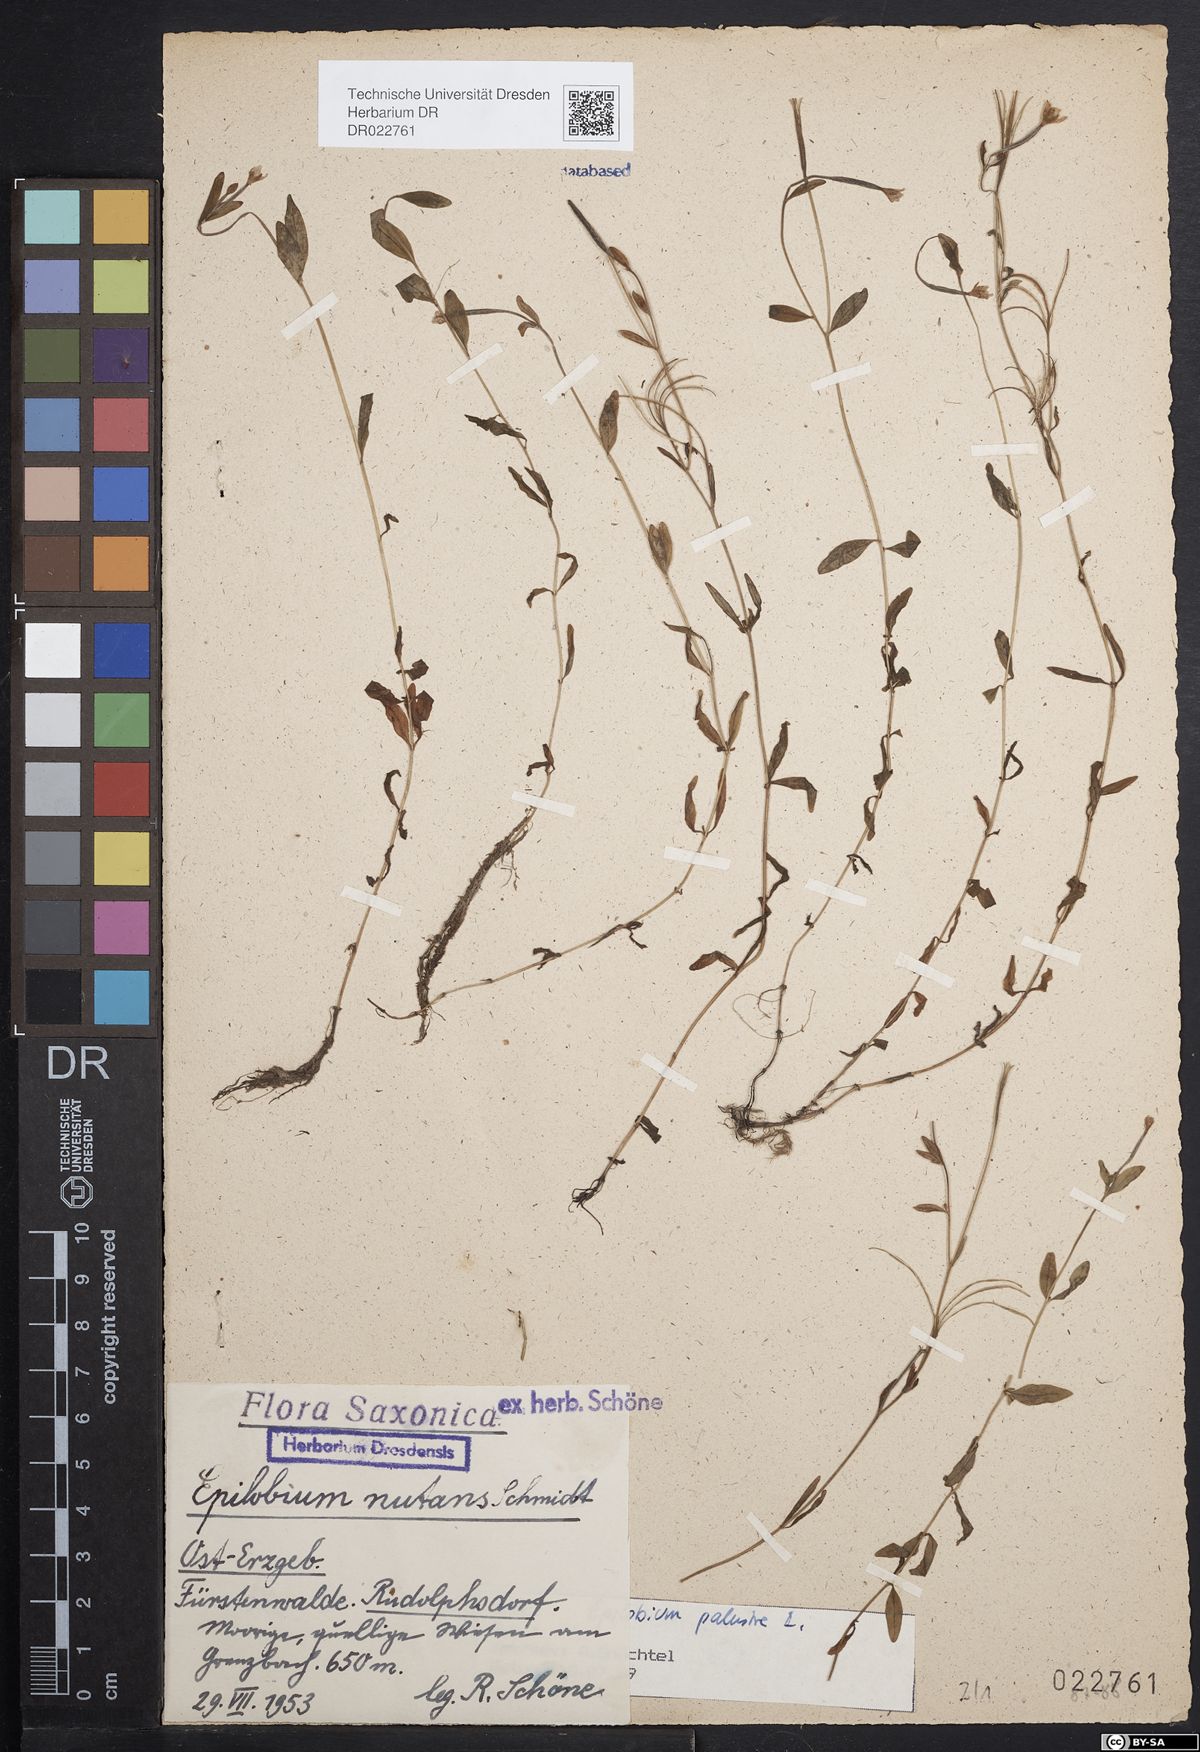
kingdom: Plantae
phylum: Tracheophyta
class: Magnoliopsida
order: Myrtales
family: Onagraceae
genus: Epilobium
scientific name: Epilobium palustre
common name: Marsh willowherb
